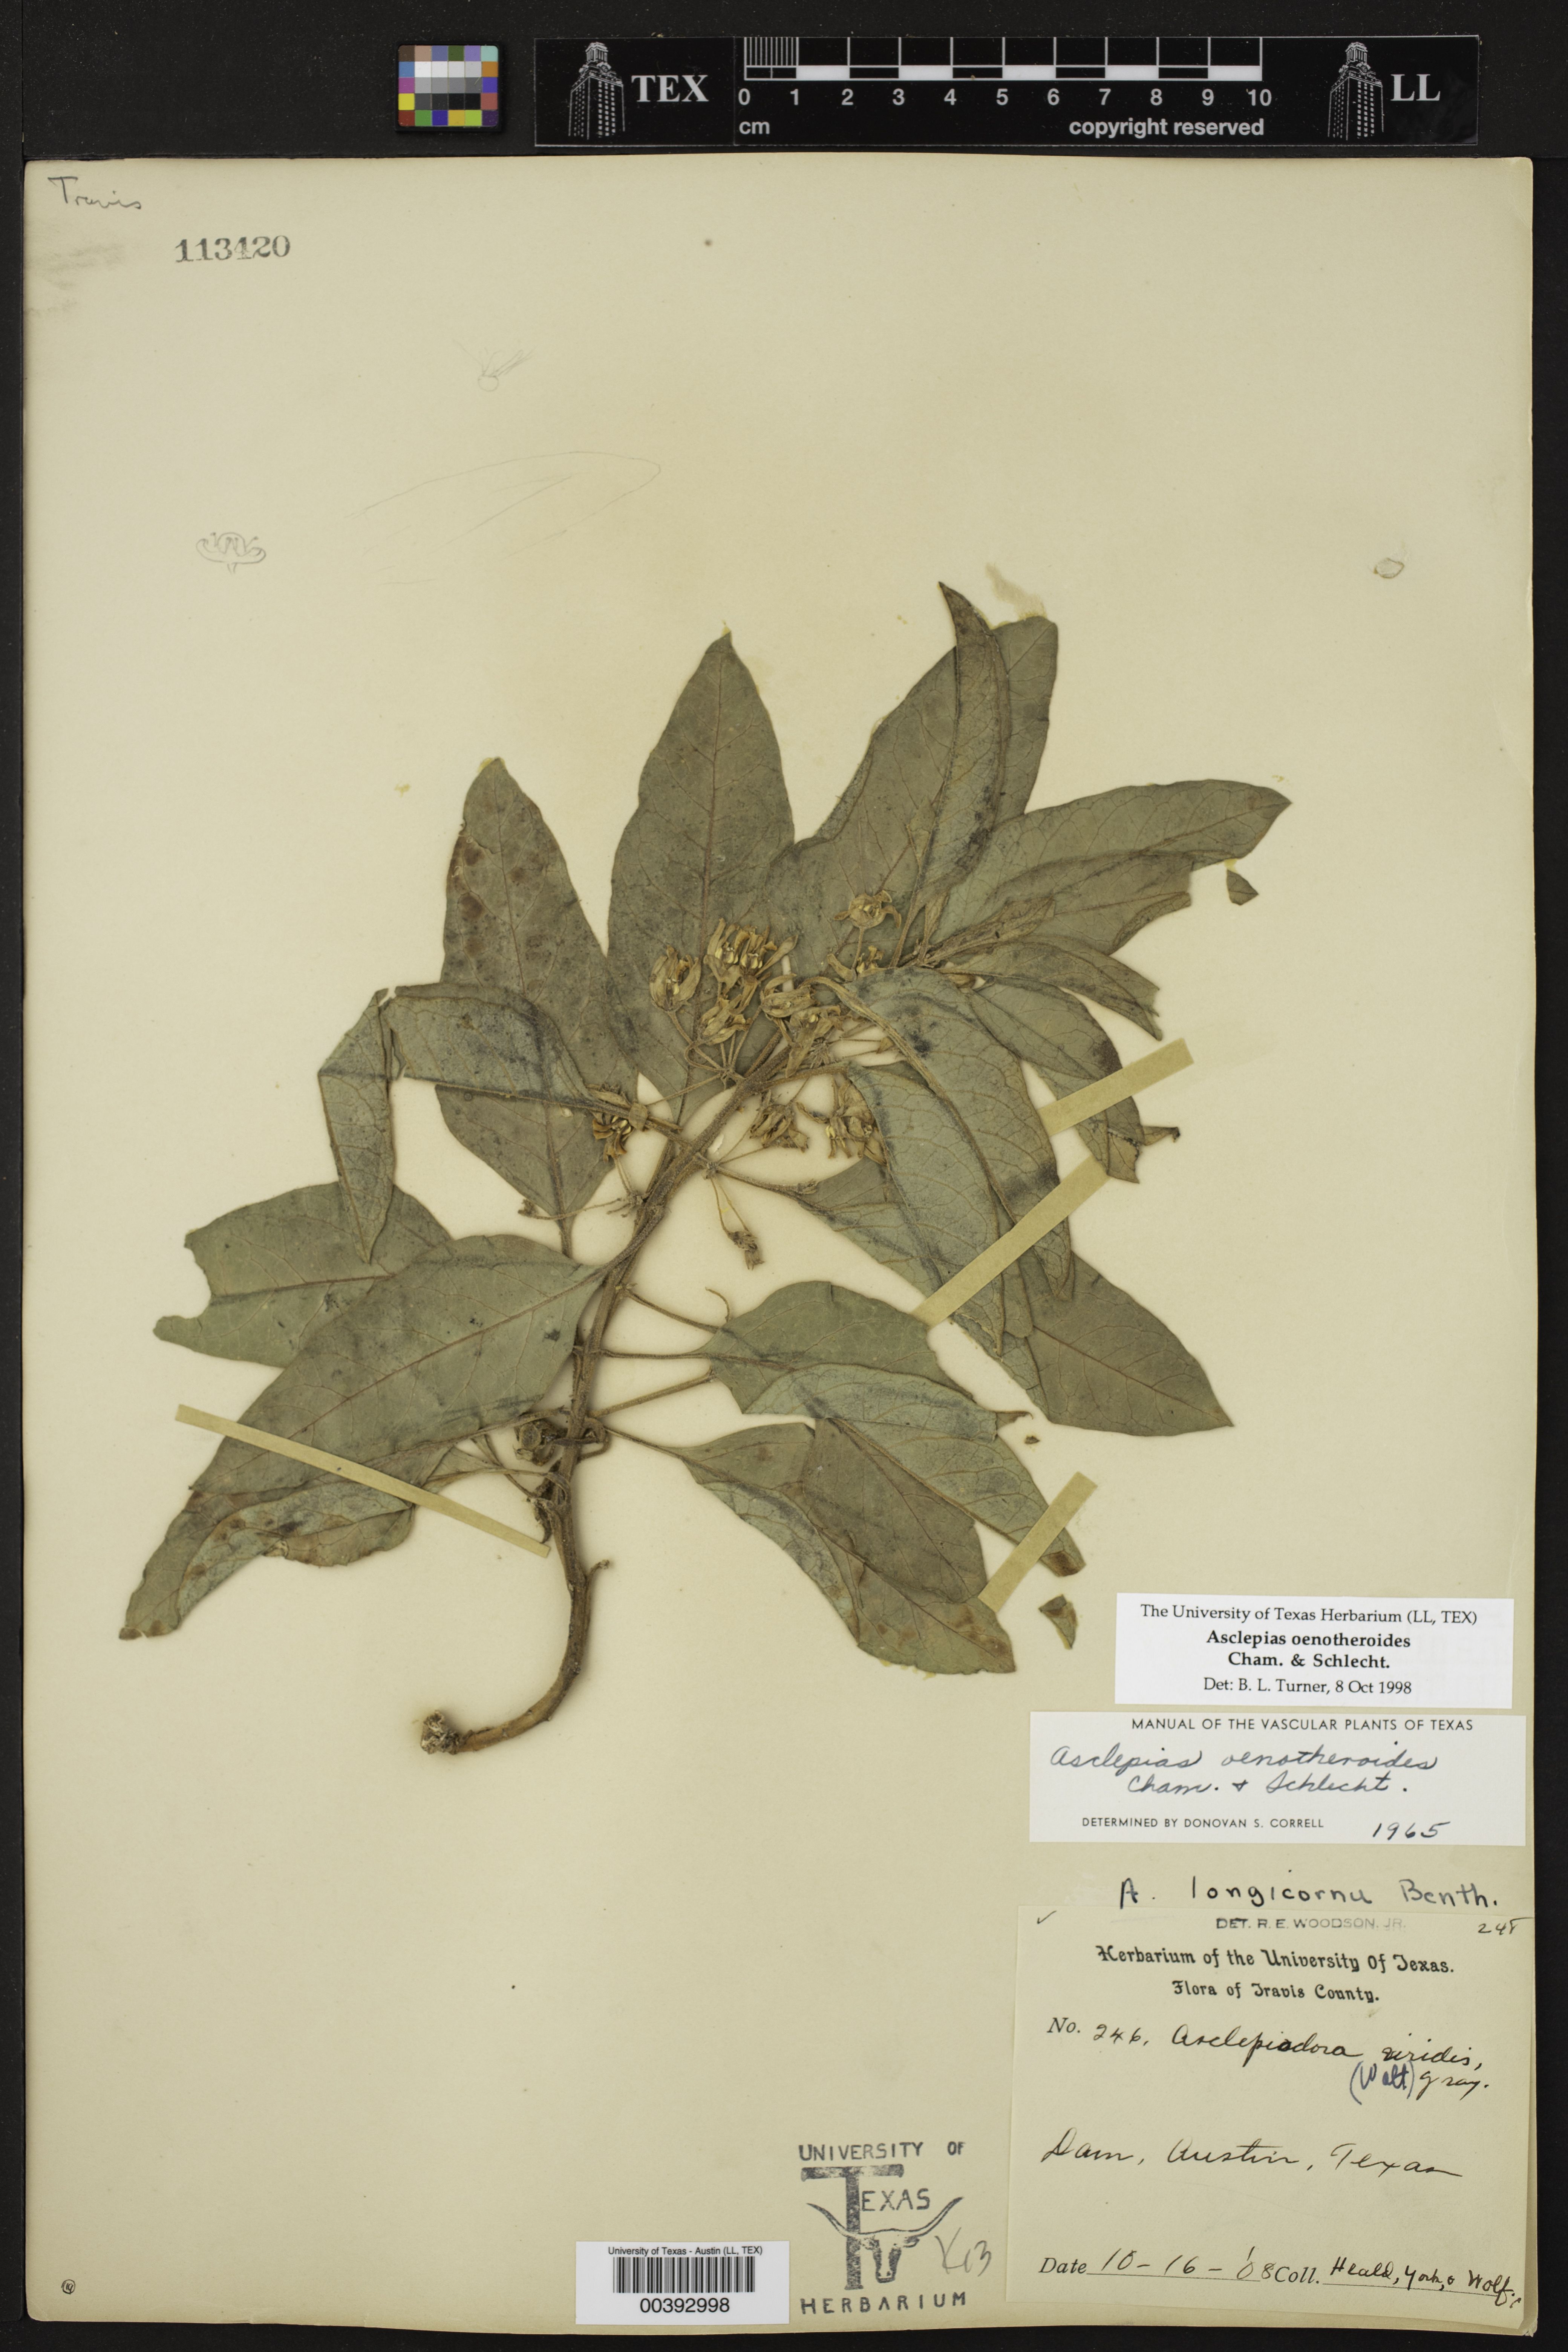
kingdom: Plantae
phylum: Tracheophyta
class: Magnoliopsida
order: Gentianales
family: Apocynaceae
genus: Asclepias
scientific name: Asclepias oenotheroides
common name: Zizotes milkweed
